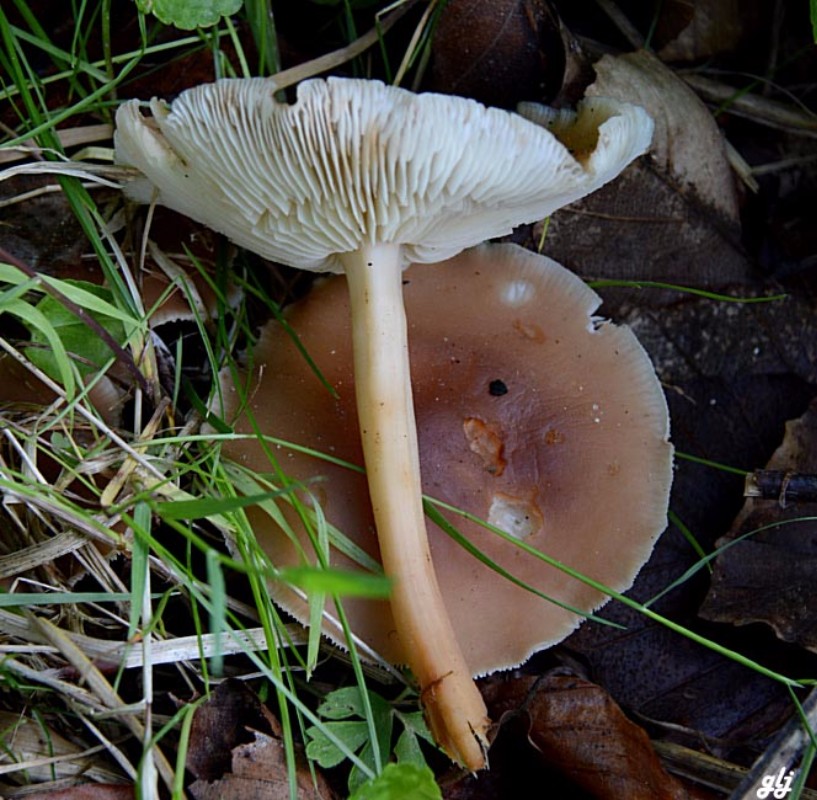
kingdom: Fungi
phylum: Basidiomycota
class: Agaricomycetes
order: Agaricales
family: Omphalotaceae
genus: Gymnopus
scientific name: Gymnopus
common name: fladhat
